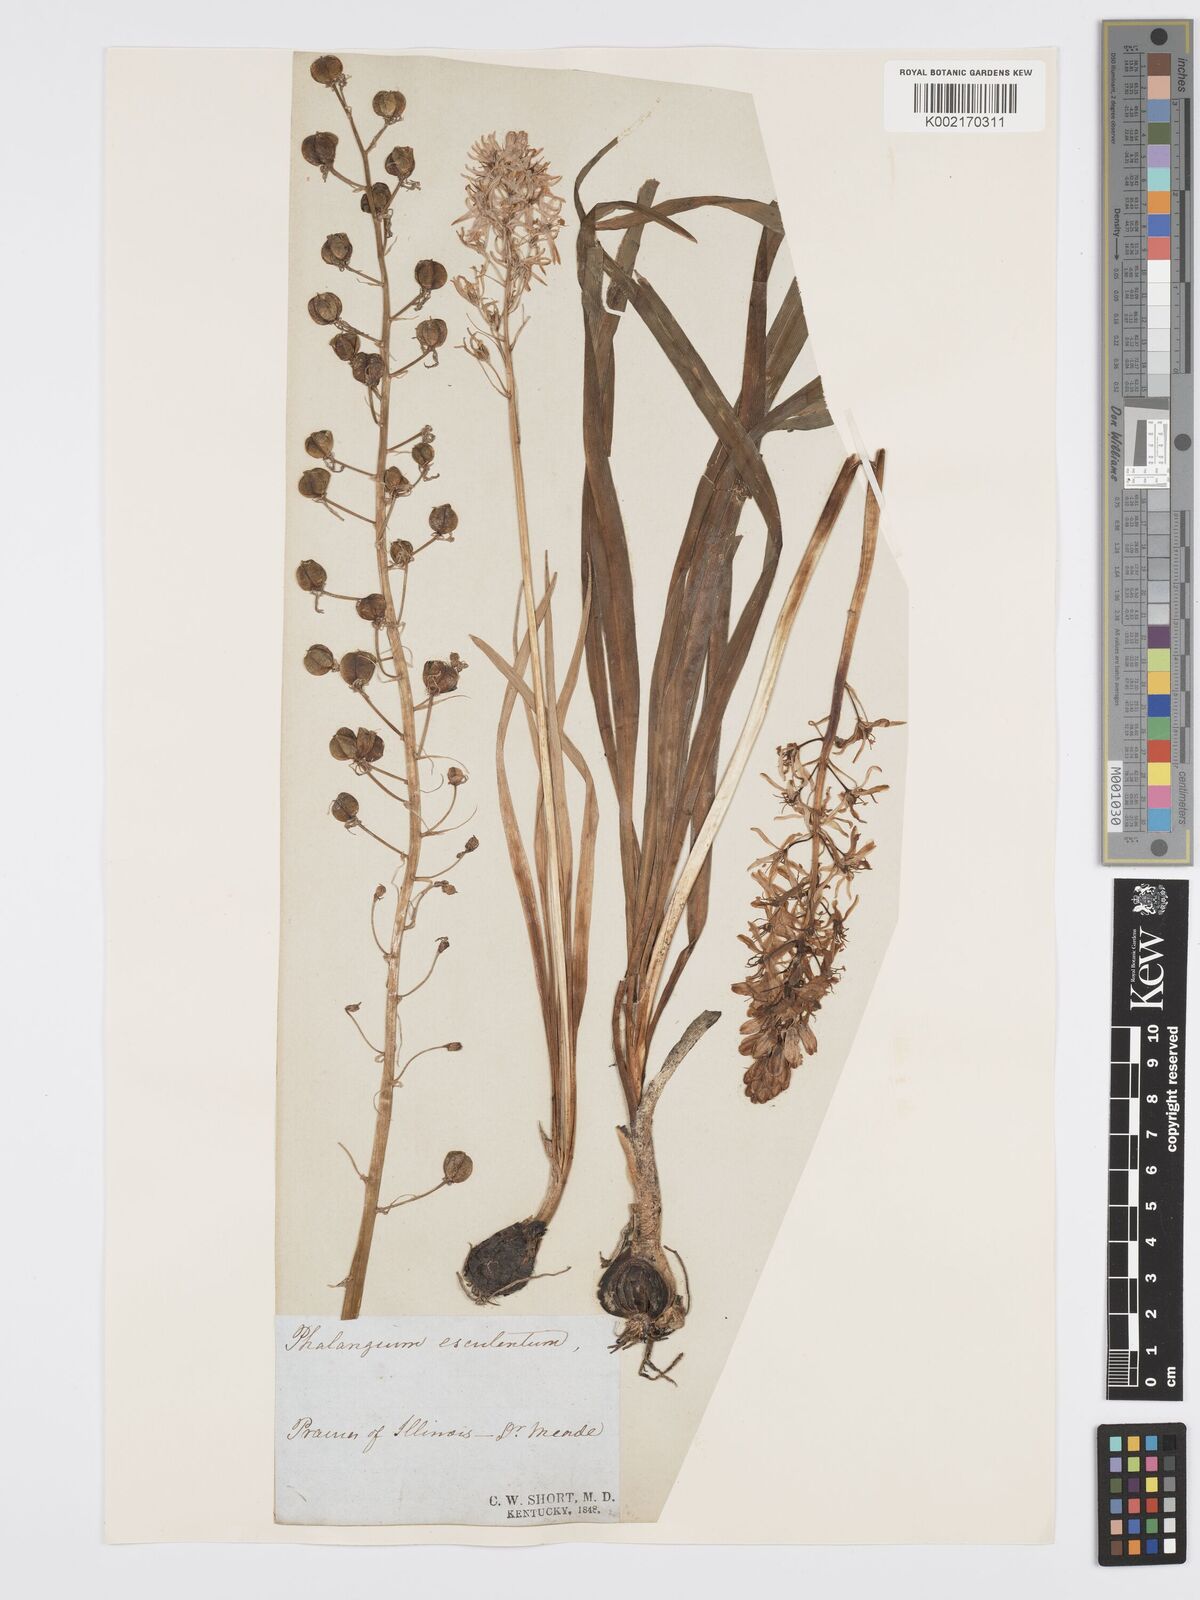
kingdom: Plantae
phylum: Tracheophyta
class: Liliopsida
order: Asparagales
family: Asparagaceae
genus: Camassia
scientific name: Camassia scilloides
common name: Wild hyacinth
